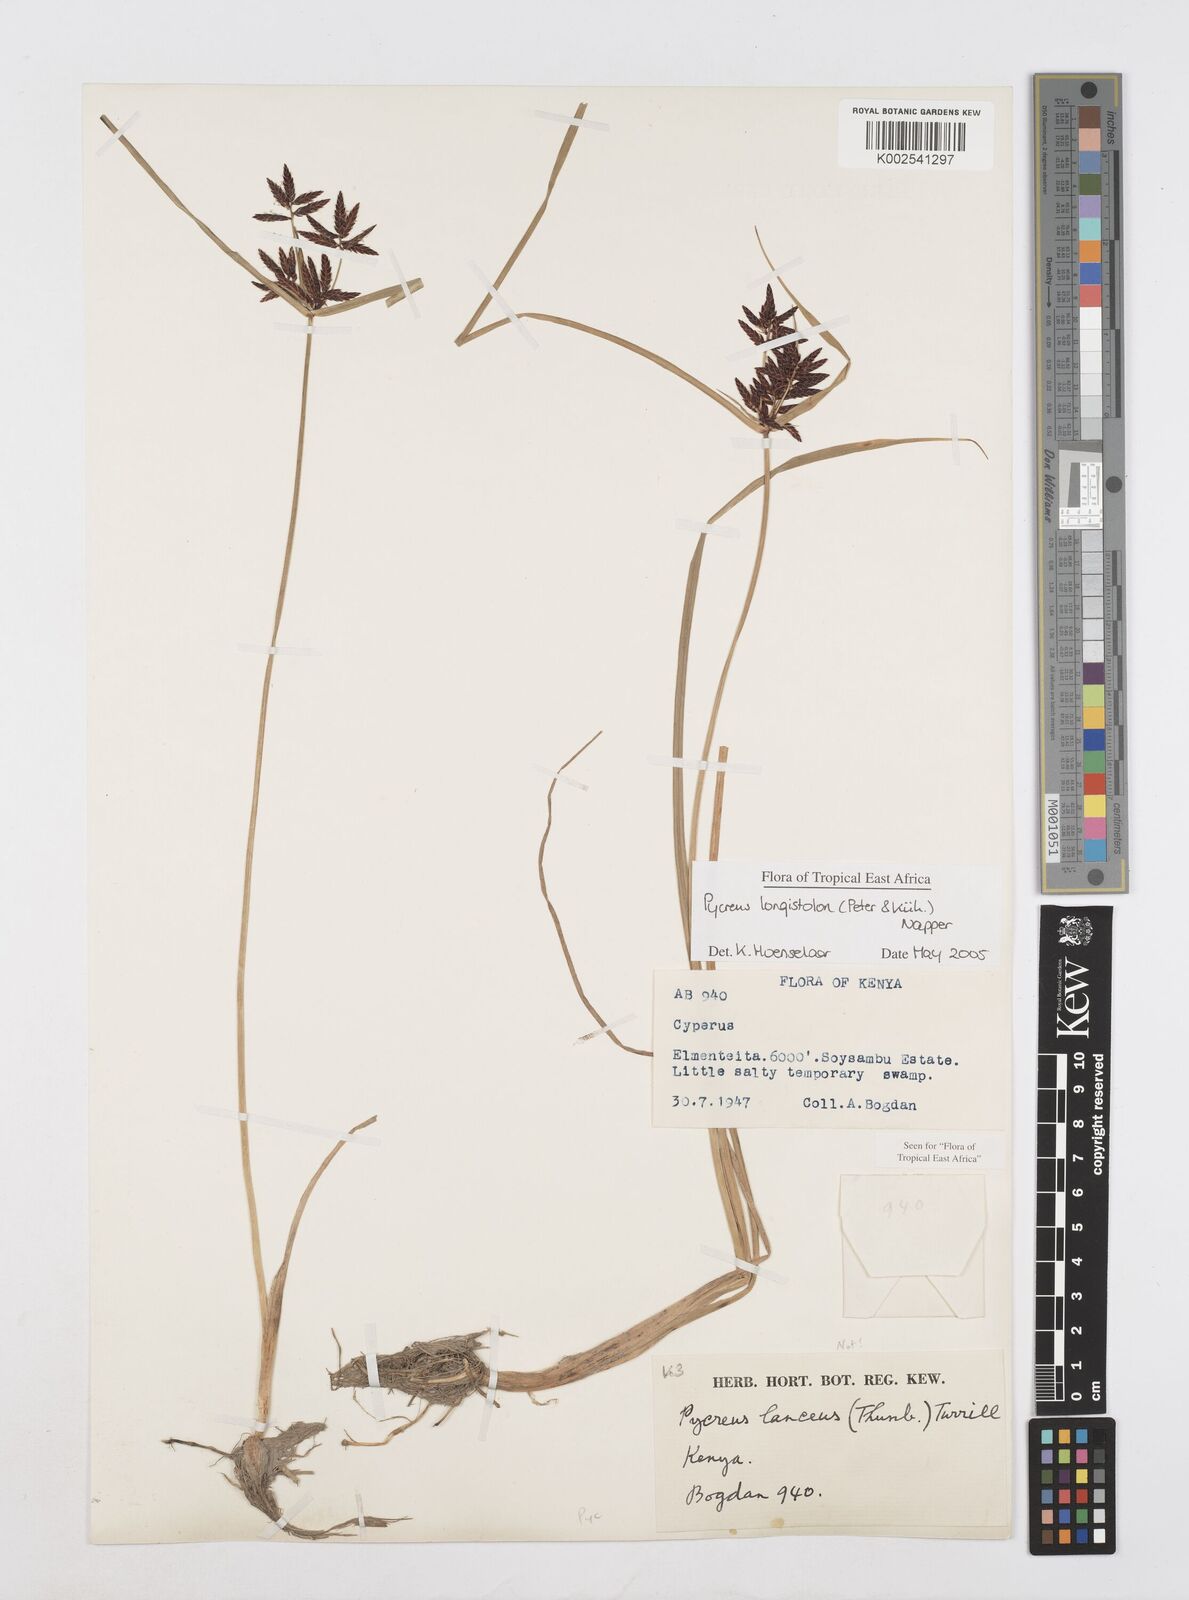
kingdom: Plantae
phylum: Tracheophyta
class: Liliopsida
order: Poales
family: Cyperaceae
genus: Cyperus
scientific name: Cyperus chrysanthus
